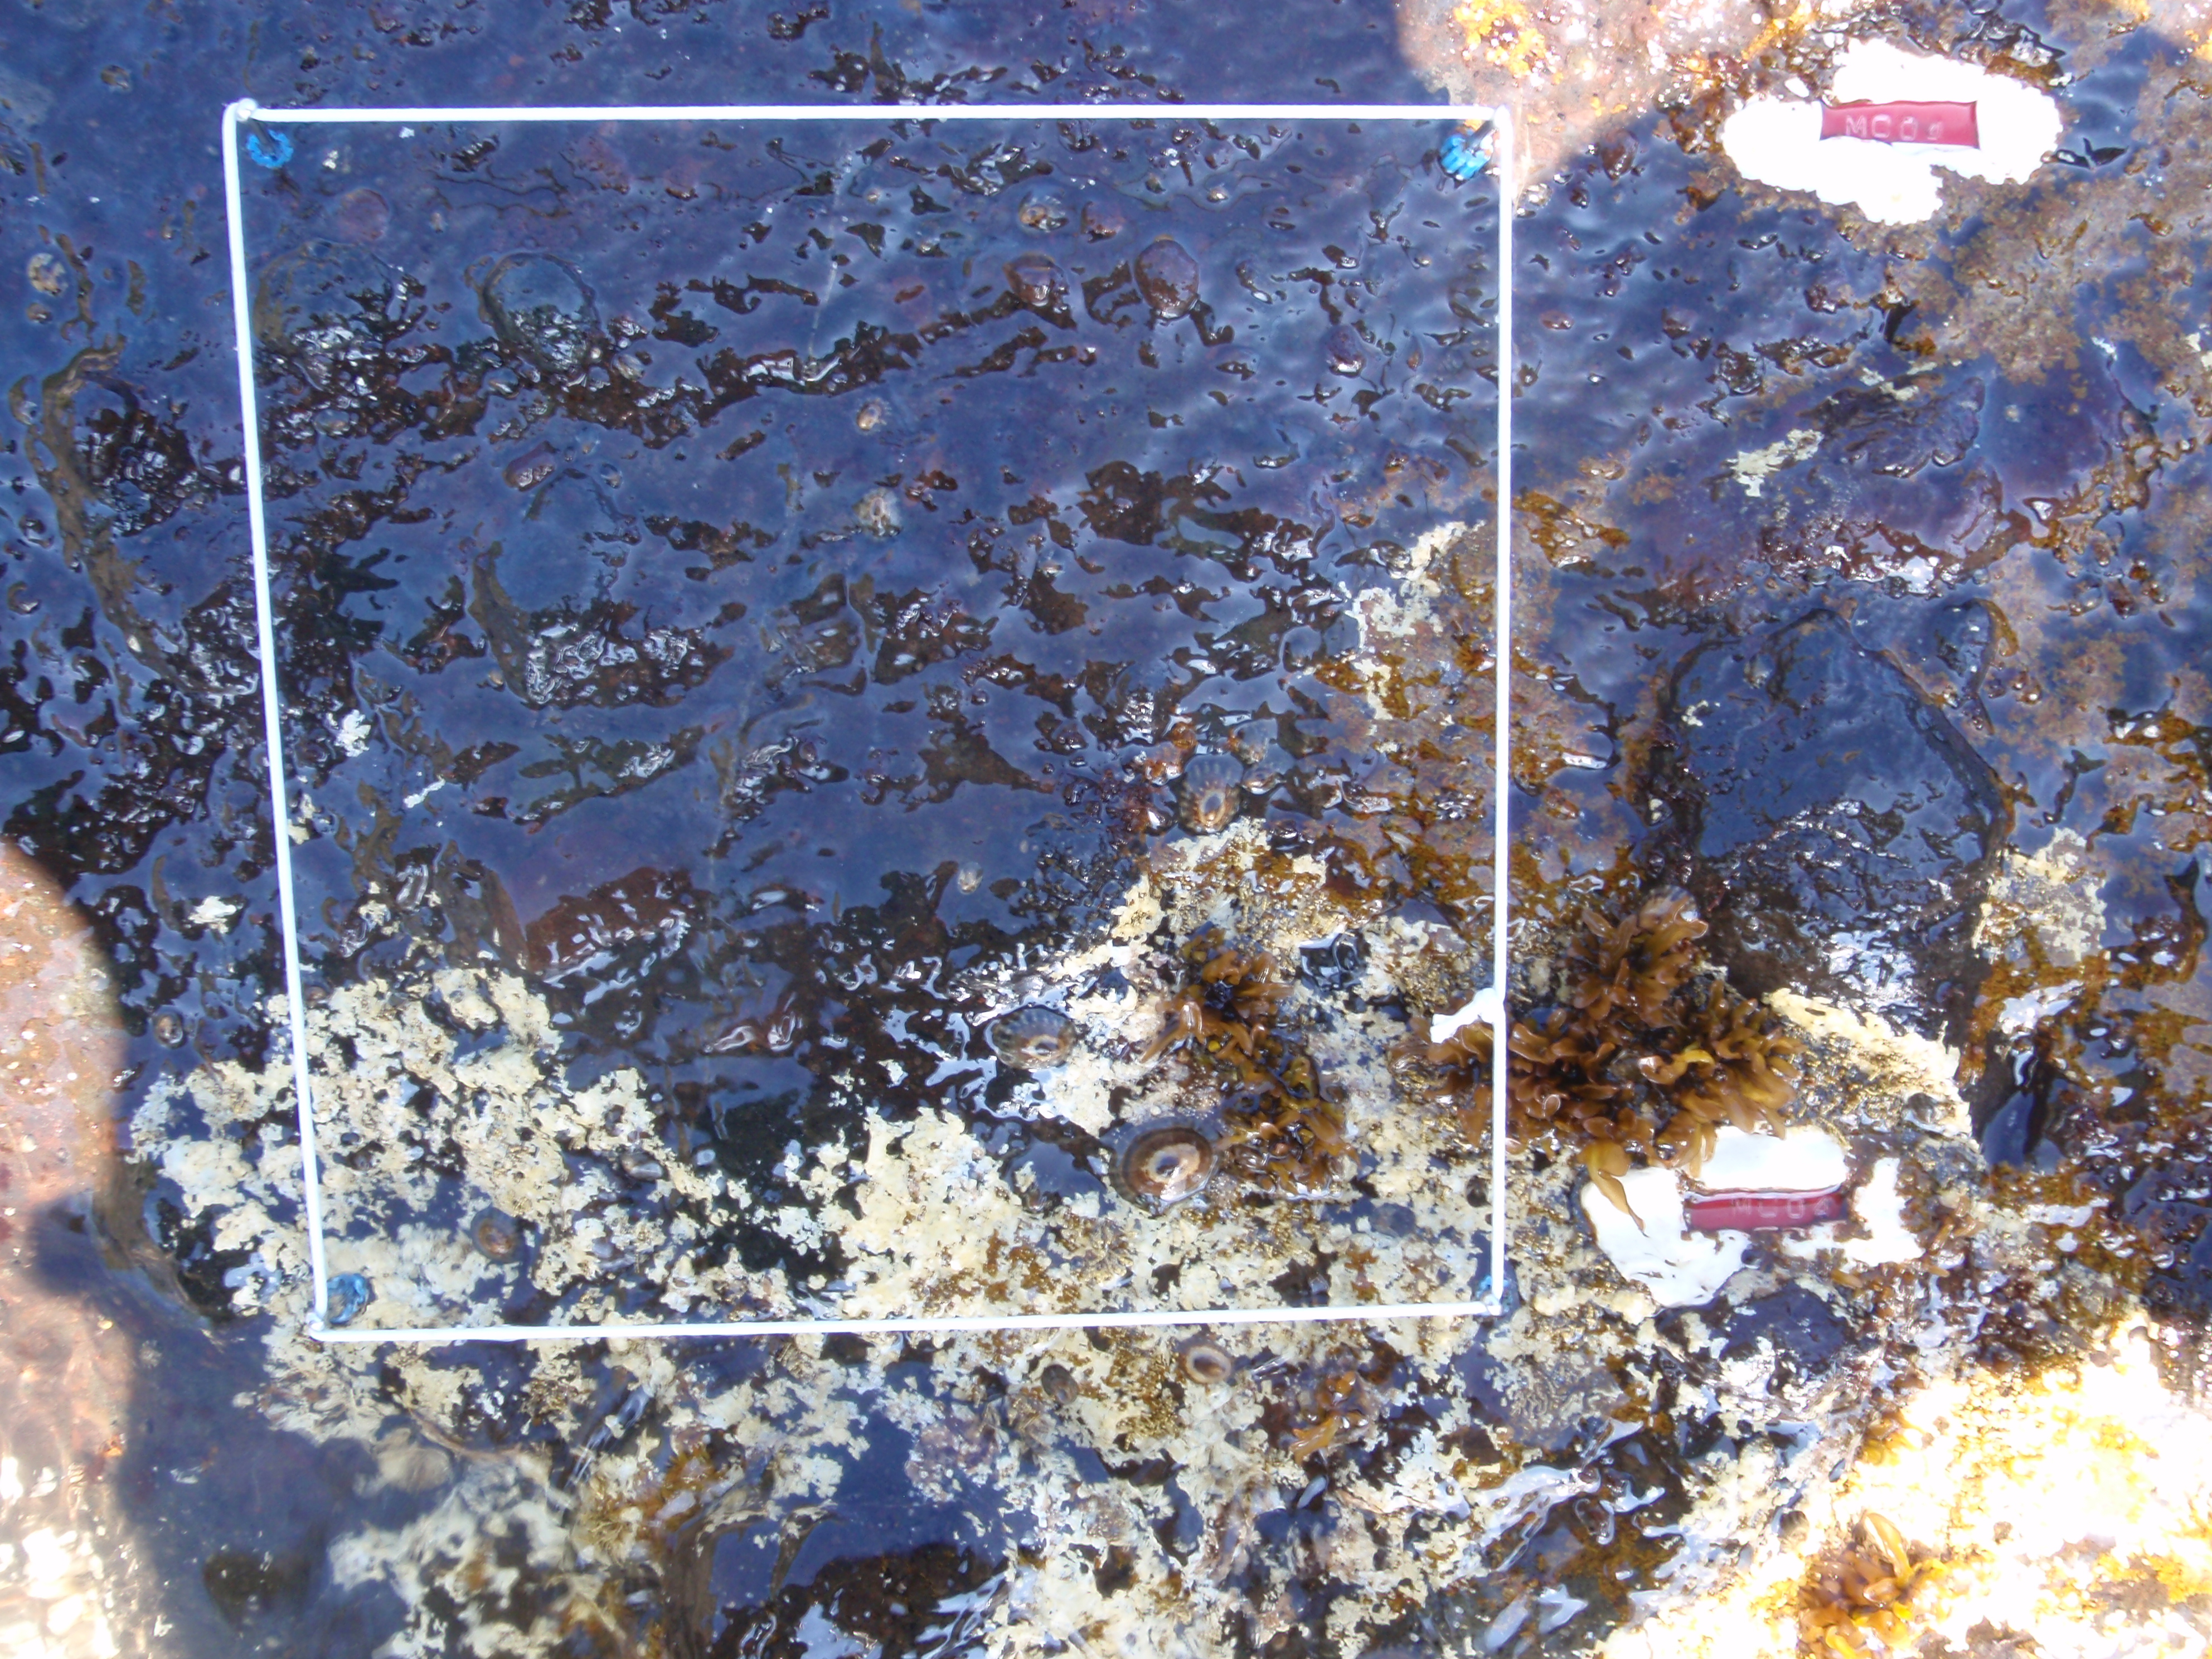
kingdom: Plantae
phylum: Rhodophyta
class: Florideophyceae
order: Corallinales
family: Corallinaceae
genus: Corallina
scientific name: Corallina pilulifera
